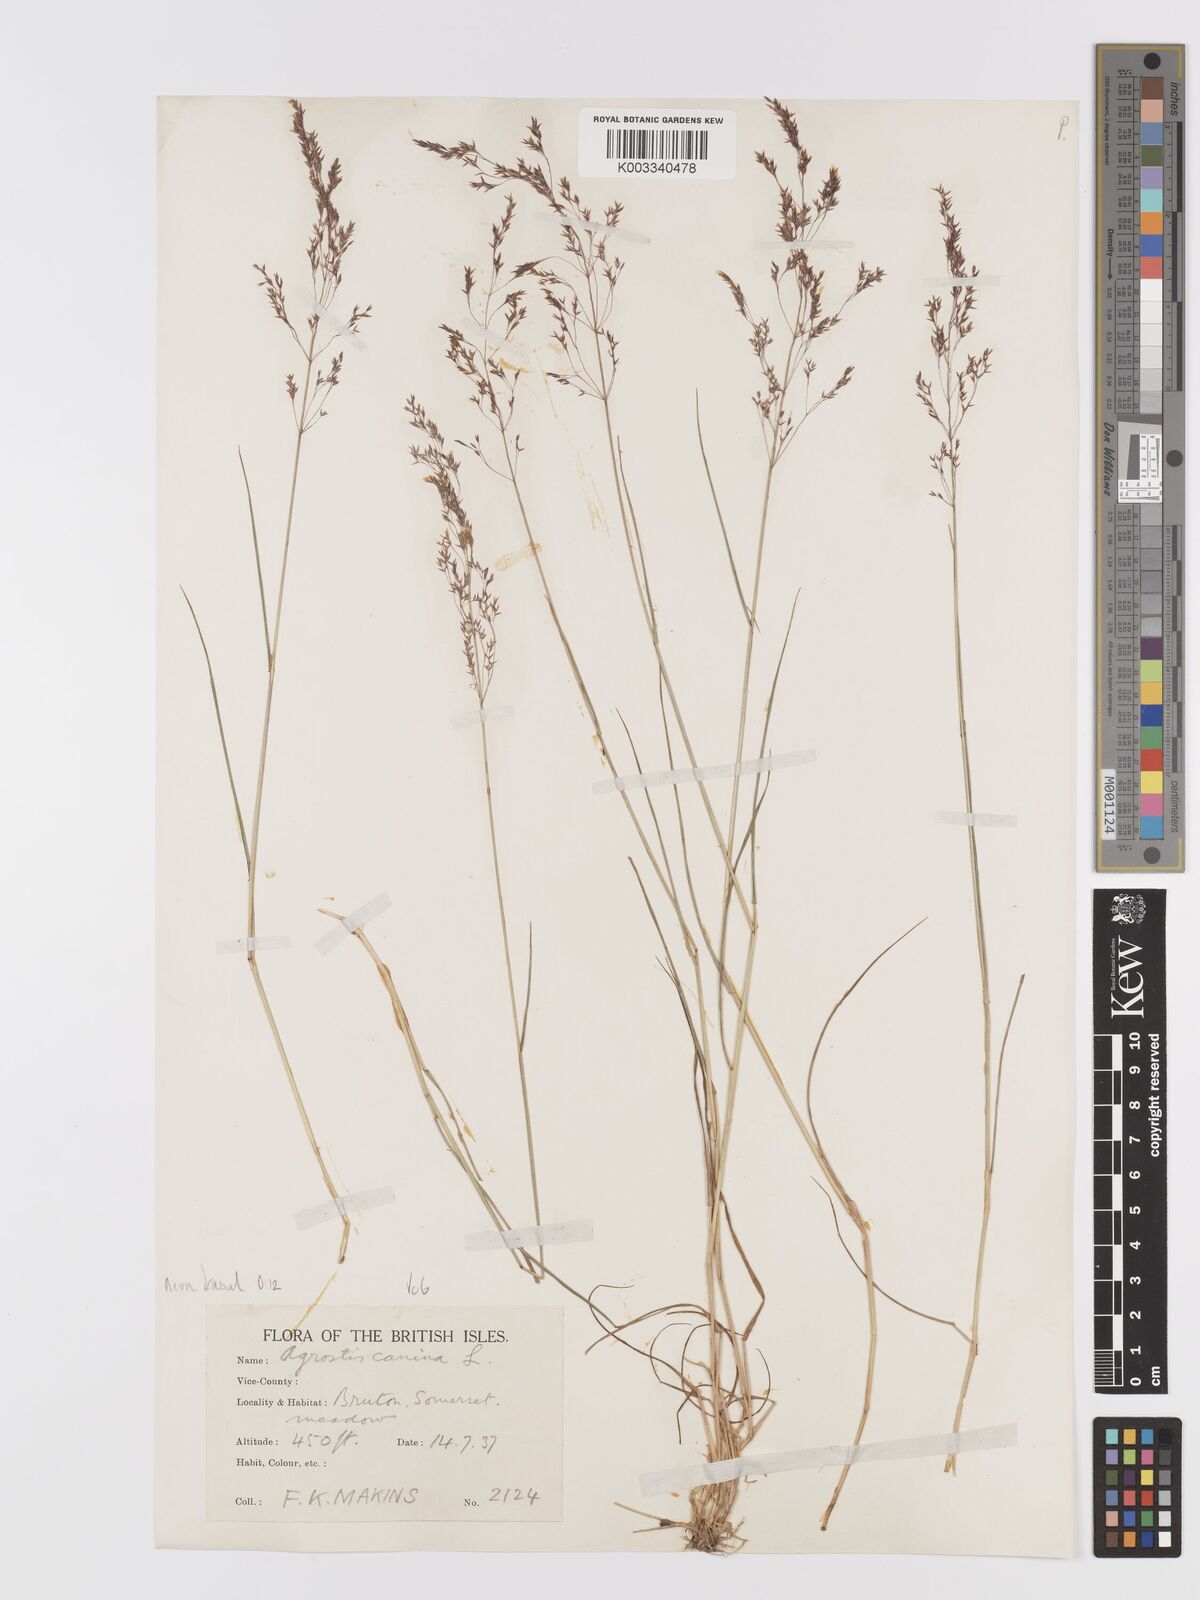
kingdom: Plantae
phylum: Tracheophyta
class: Liliopsida
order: Poales
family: Poaceae
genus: Agrostis
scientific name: Agrostis capillaris
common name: Colonial bentgrass
